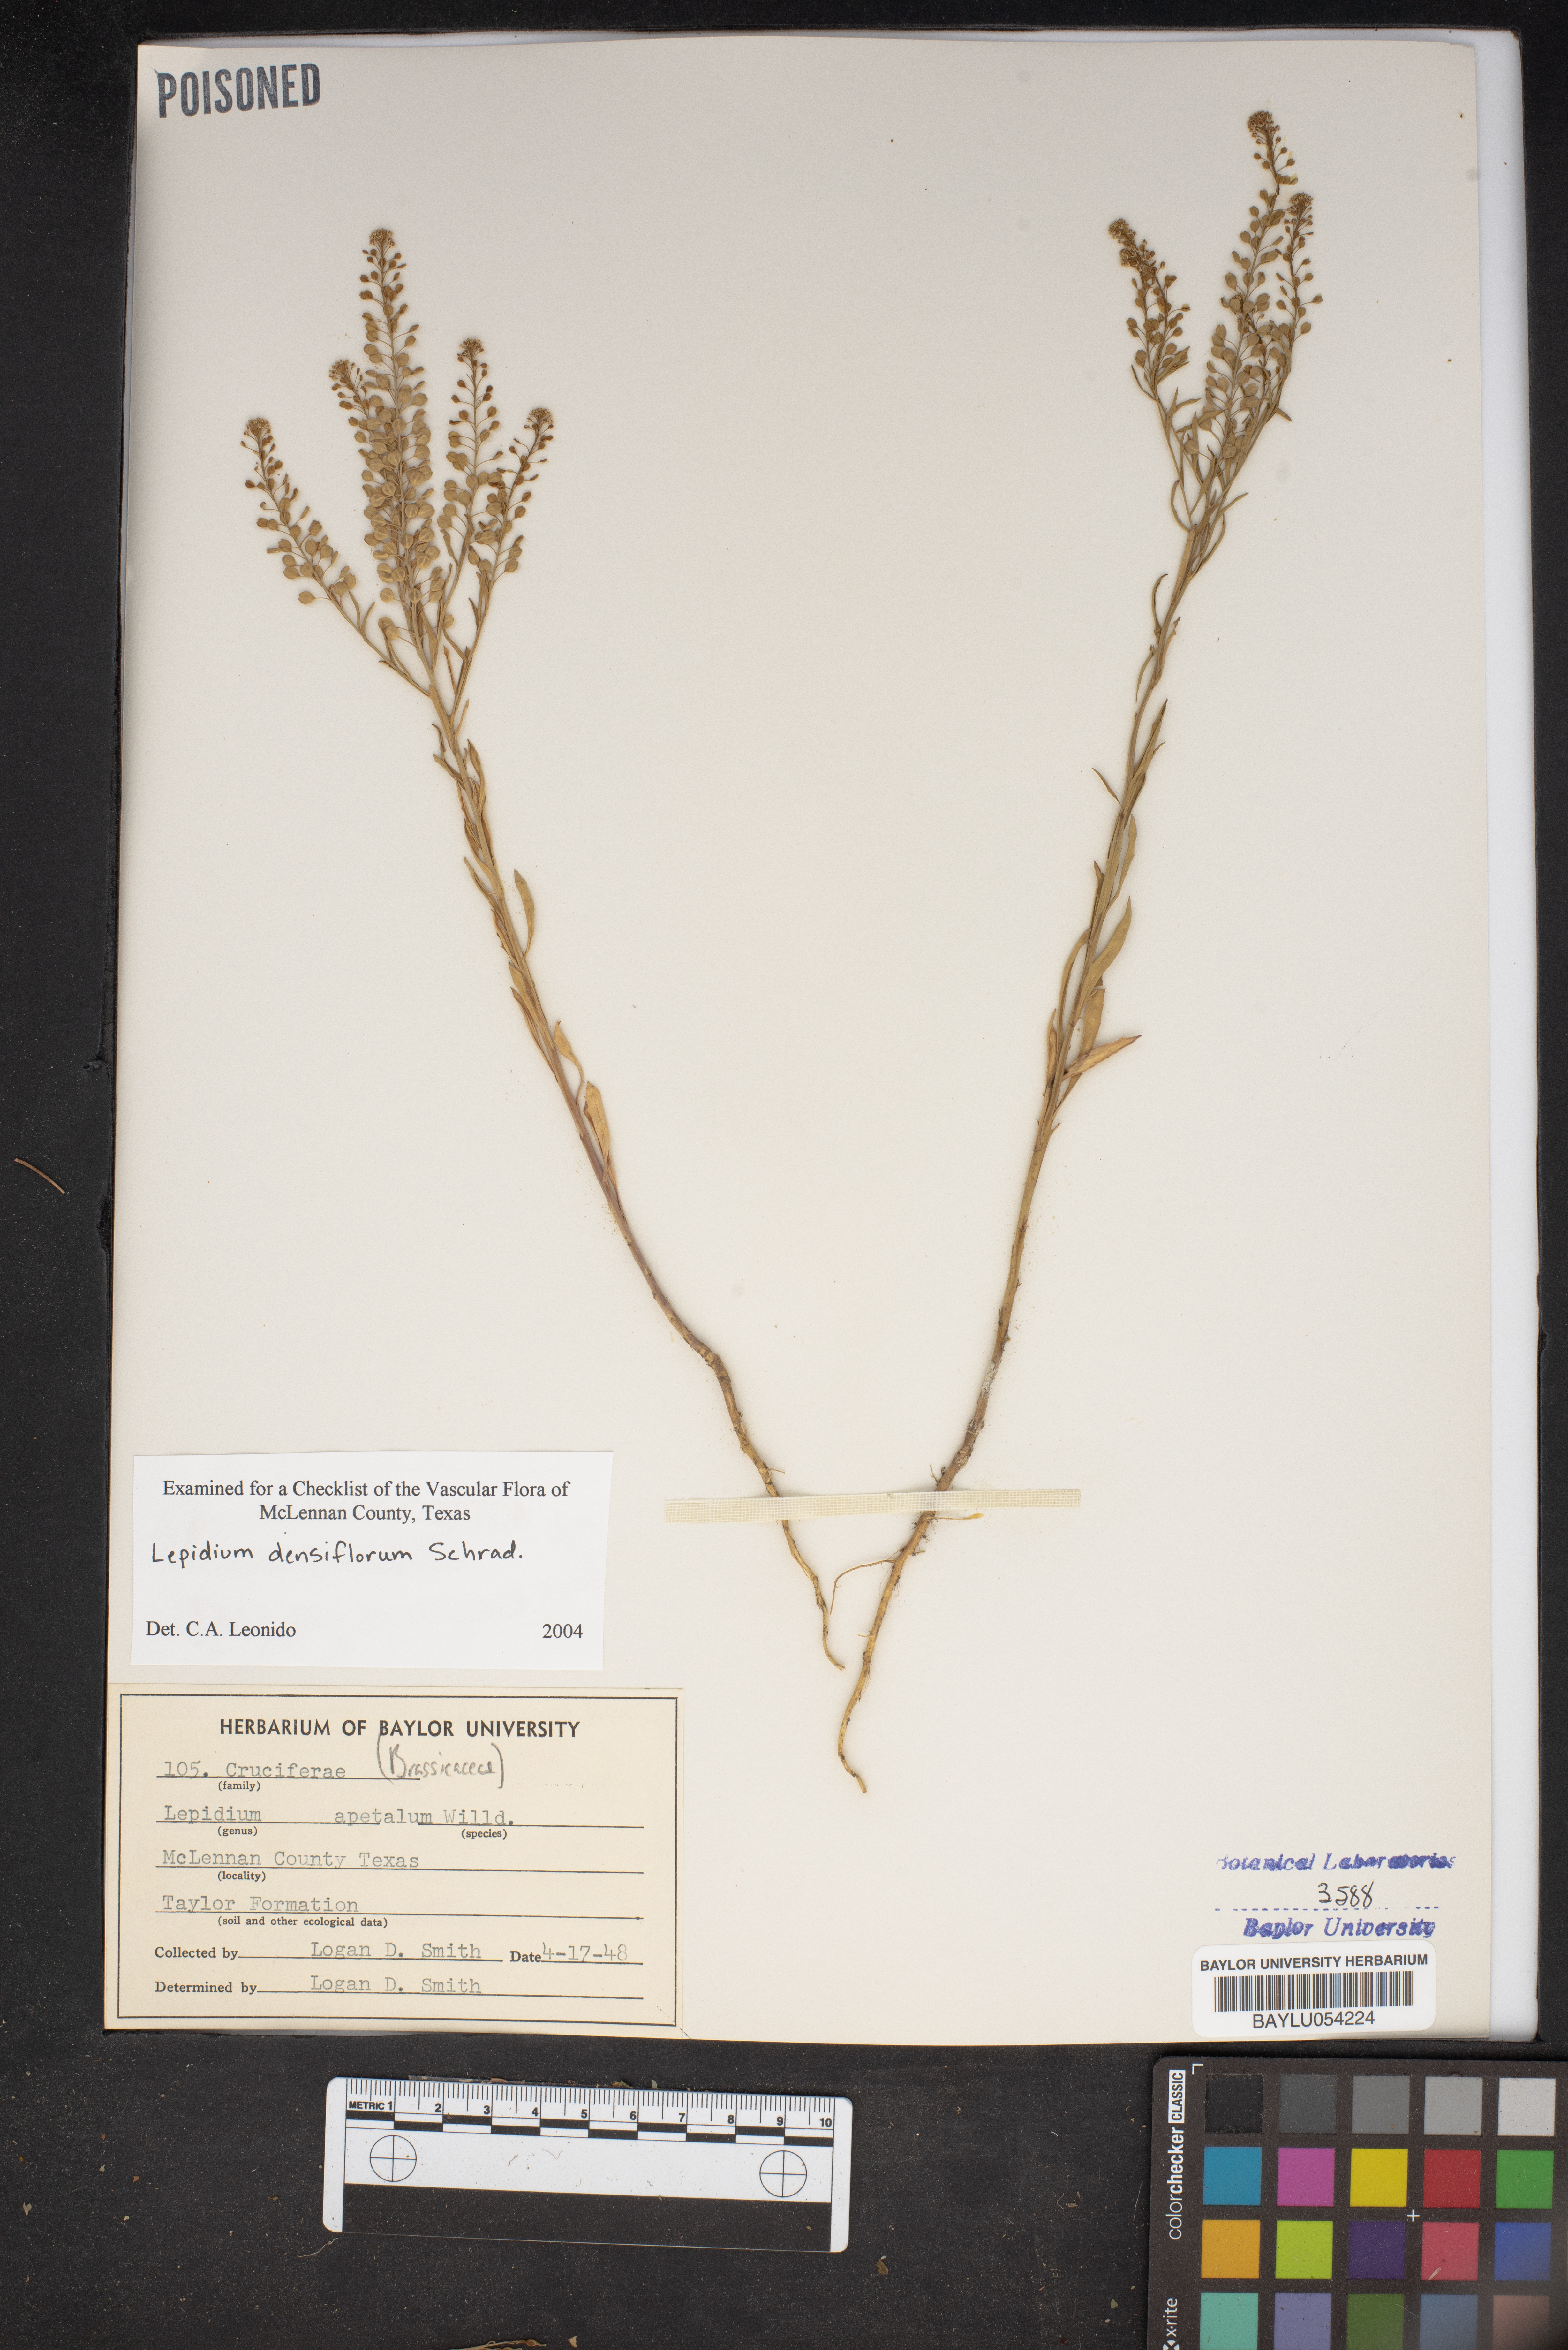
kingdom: Plantae
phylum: Tracheophyta
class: Magnoliopsida
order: Brassicales
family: Brassicaceae
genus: Lepidium
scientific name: Lepidium densiflorum
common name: Miner's pepperwort
